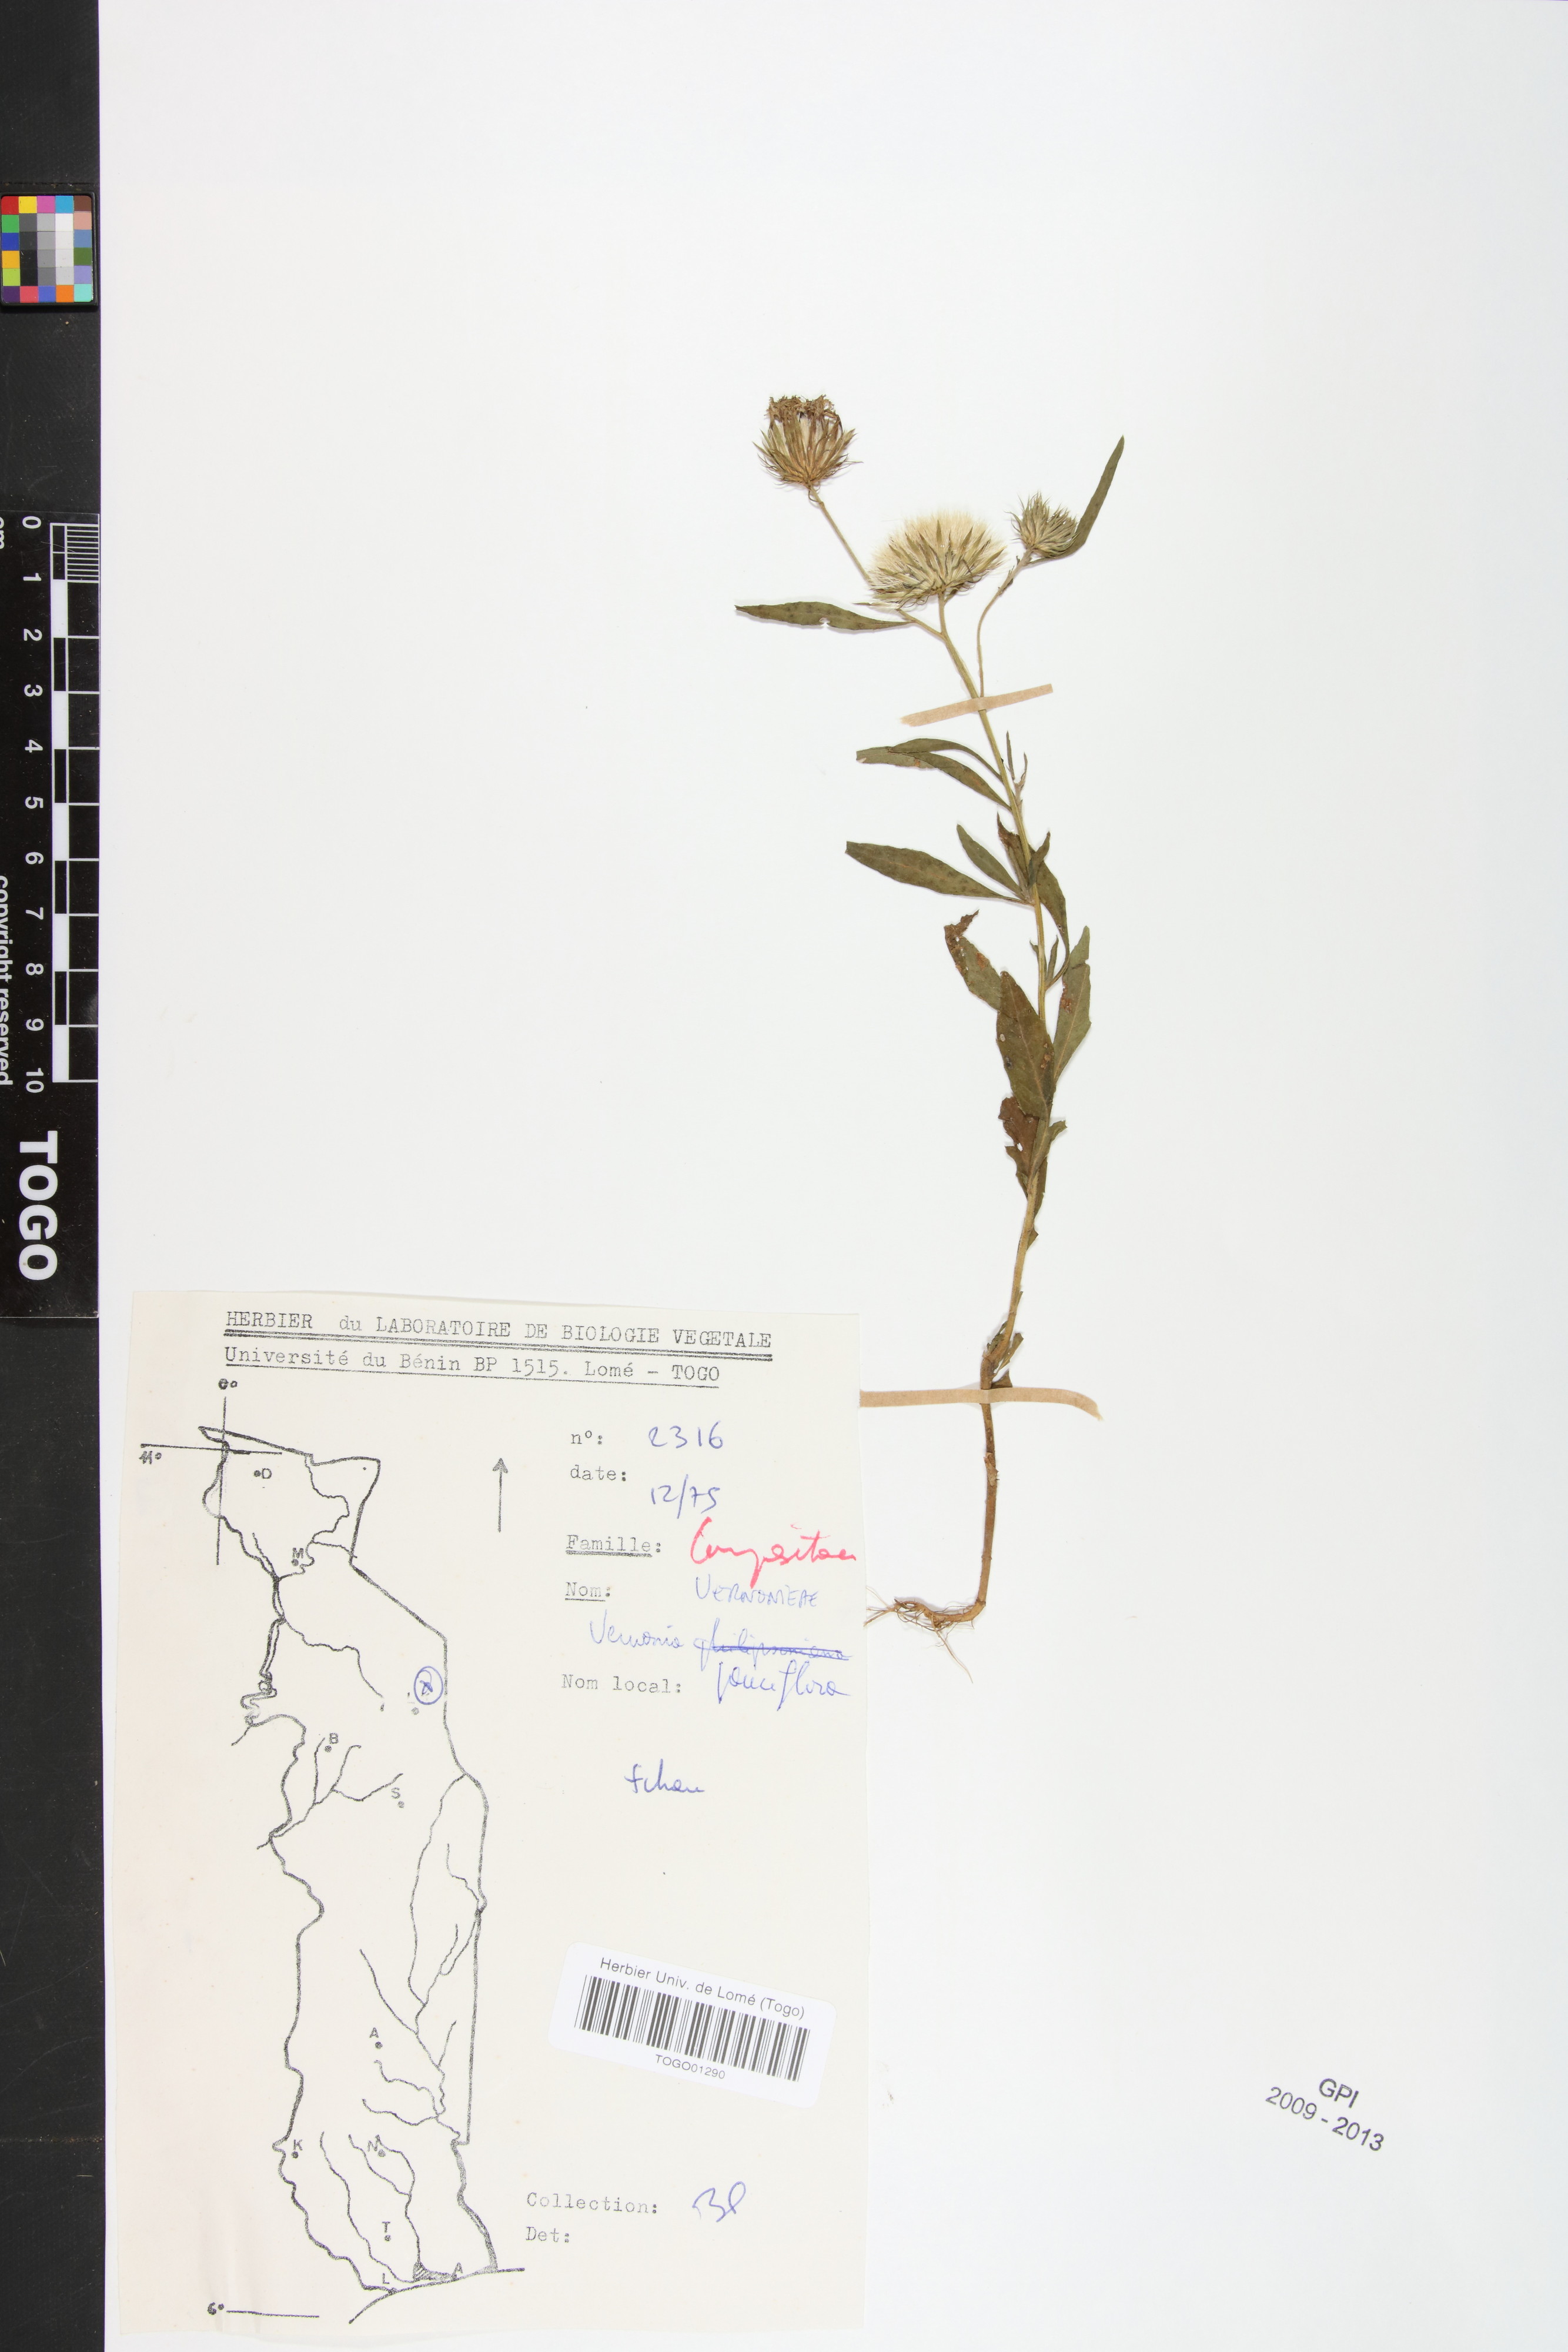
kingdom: Plantae
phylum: Tracheophyta
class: Magnoliopsida
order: Asterales
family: Asteraceae
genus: Vernonia
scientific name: Vernonia galamensis
